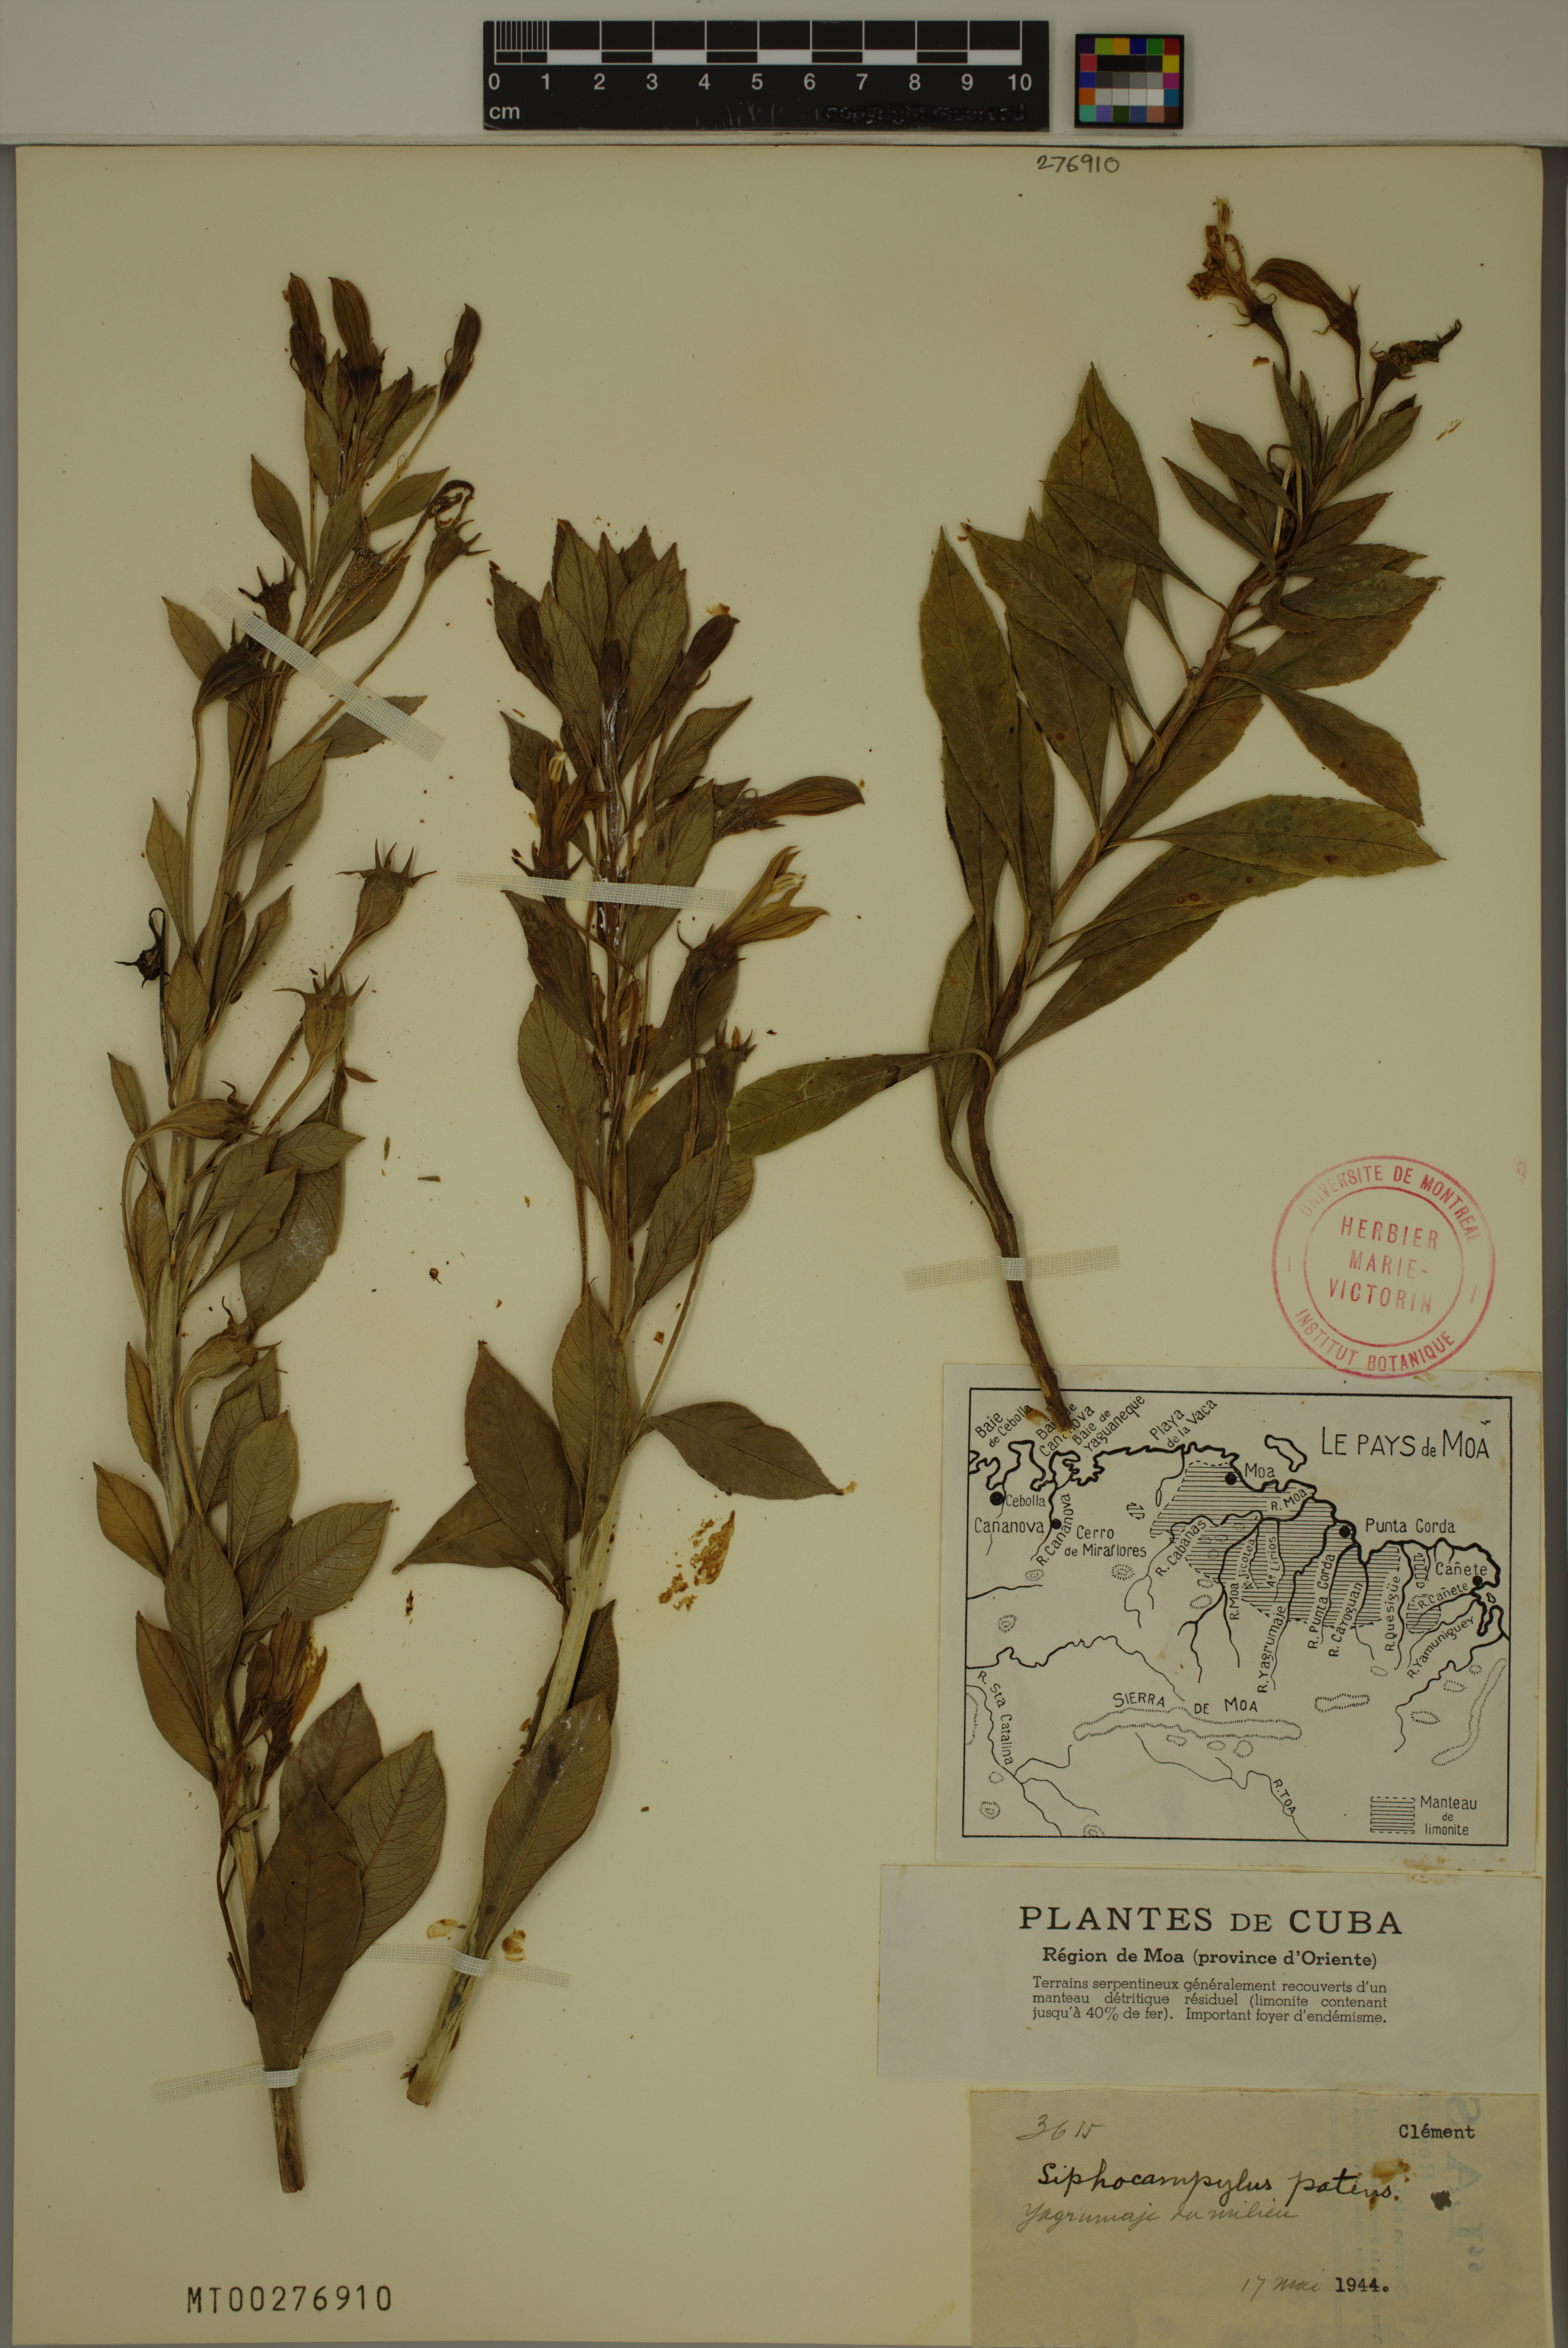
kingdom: Plantae
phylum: Tracheophyta
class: Magnoliopsida
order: Asterales
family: Campanulaceae
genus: Siphocampylus
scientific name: Siphocampylus patens
